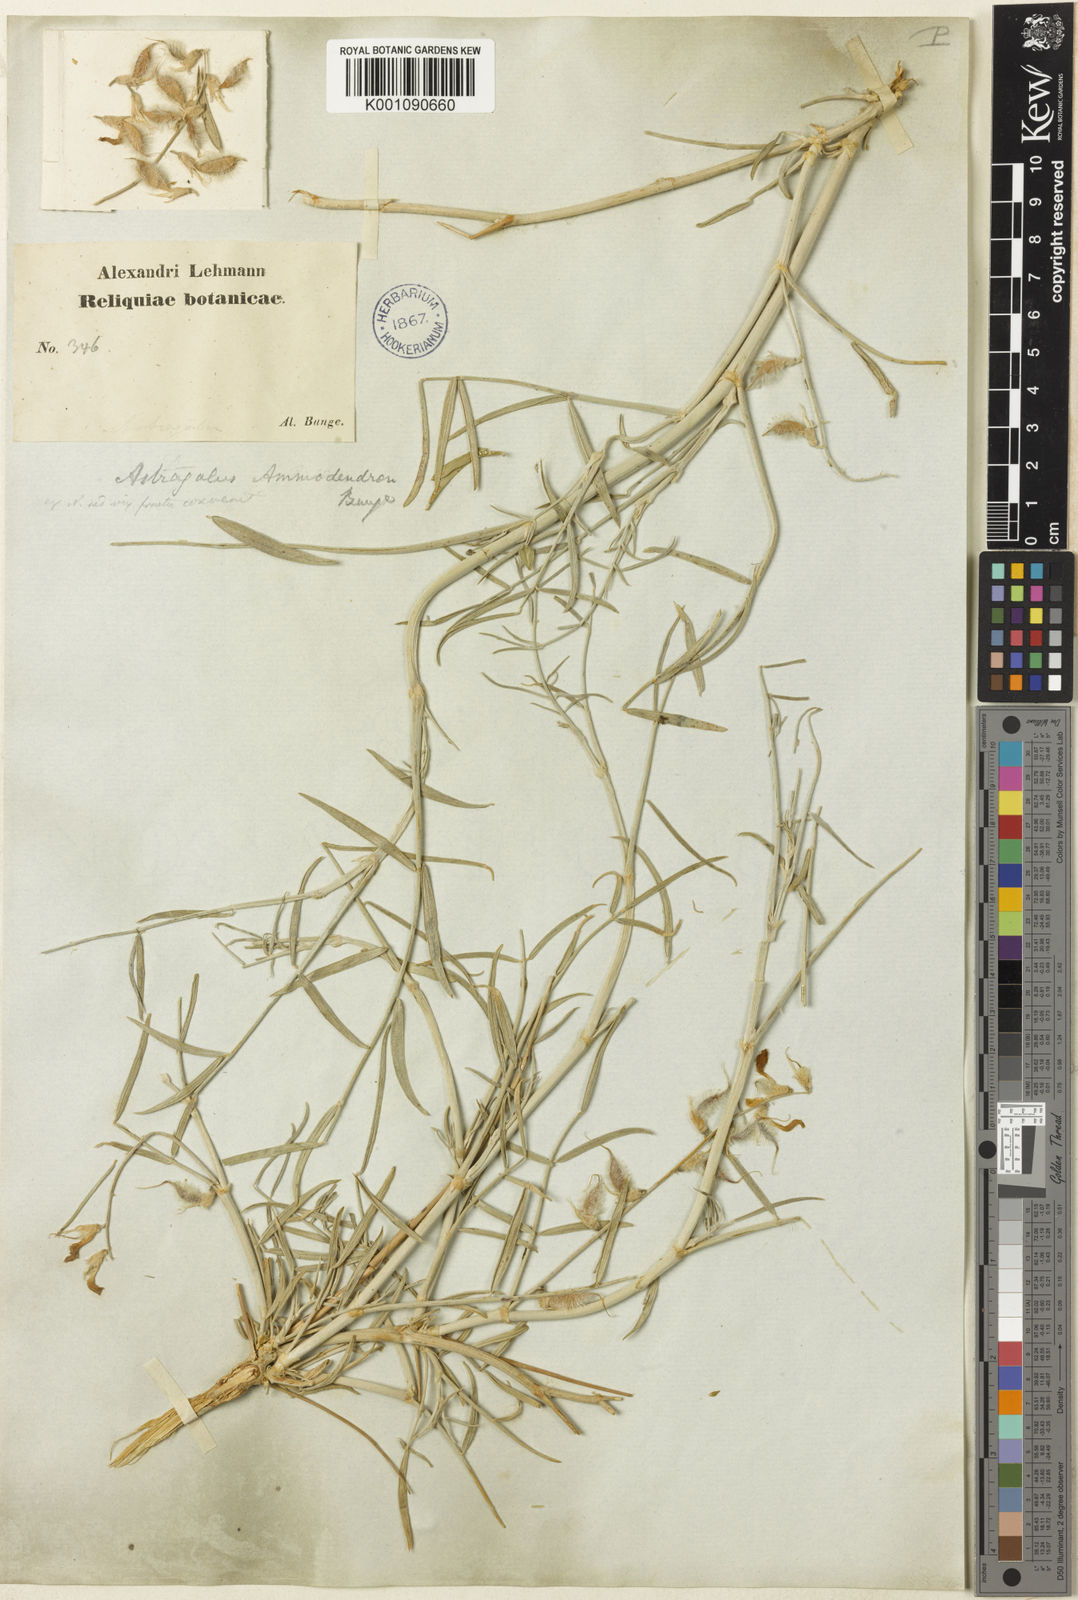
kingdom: Plantae
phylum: Tracheophyta
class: Magnoliopsida
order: Fabales
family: Fabaceae
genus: Astragalus
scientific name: Astragalus
